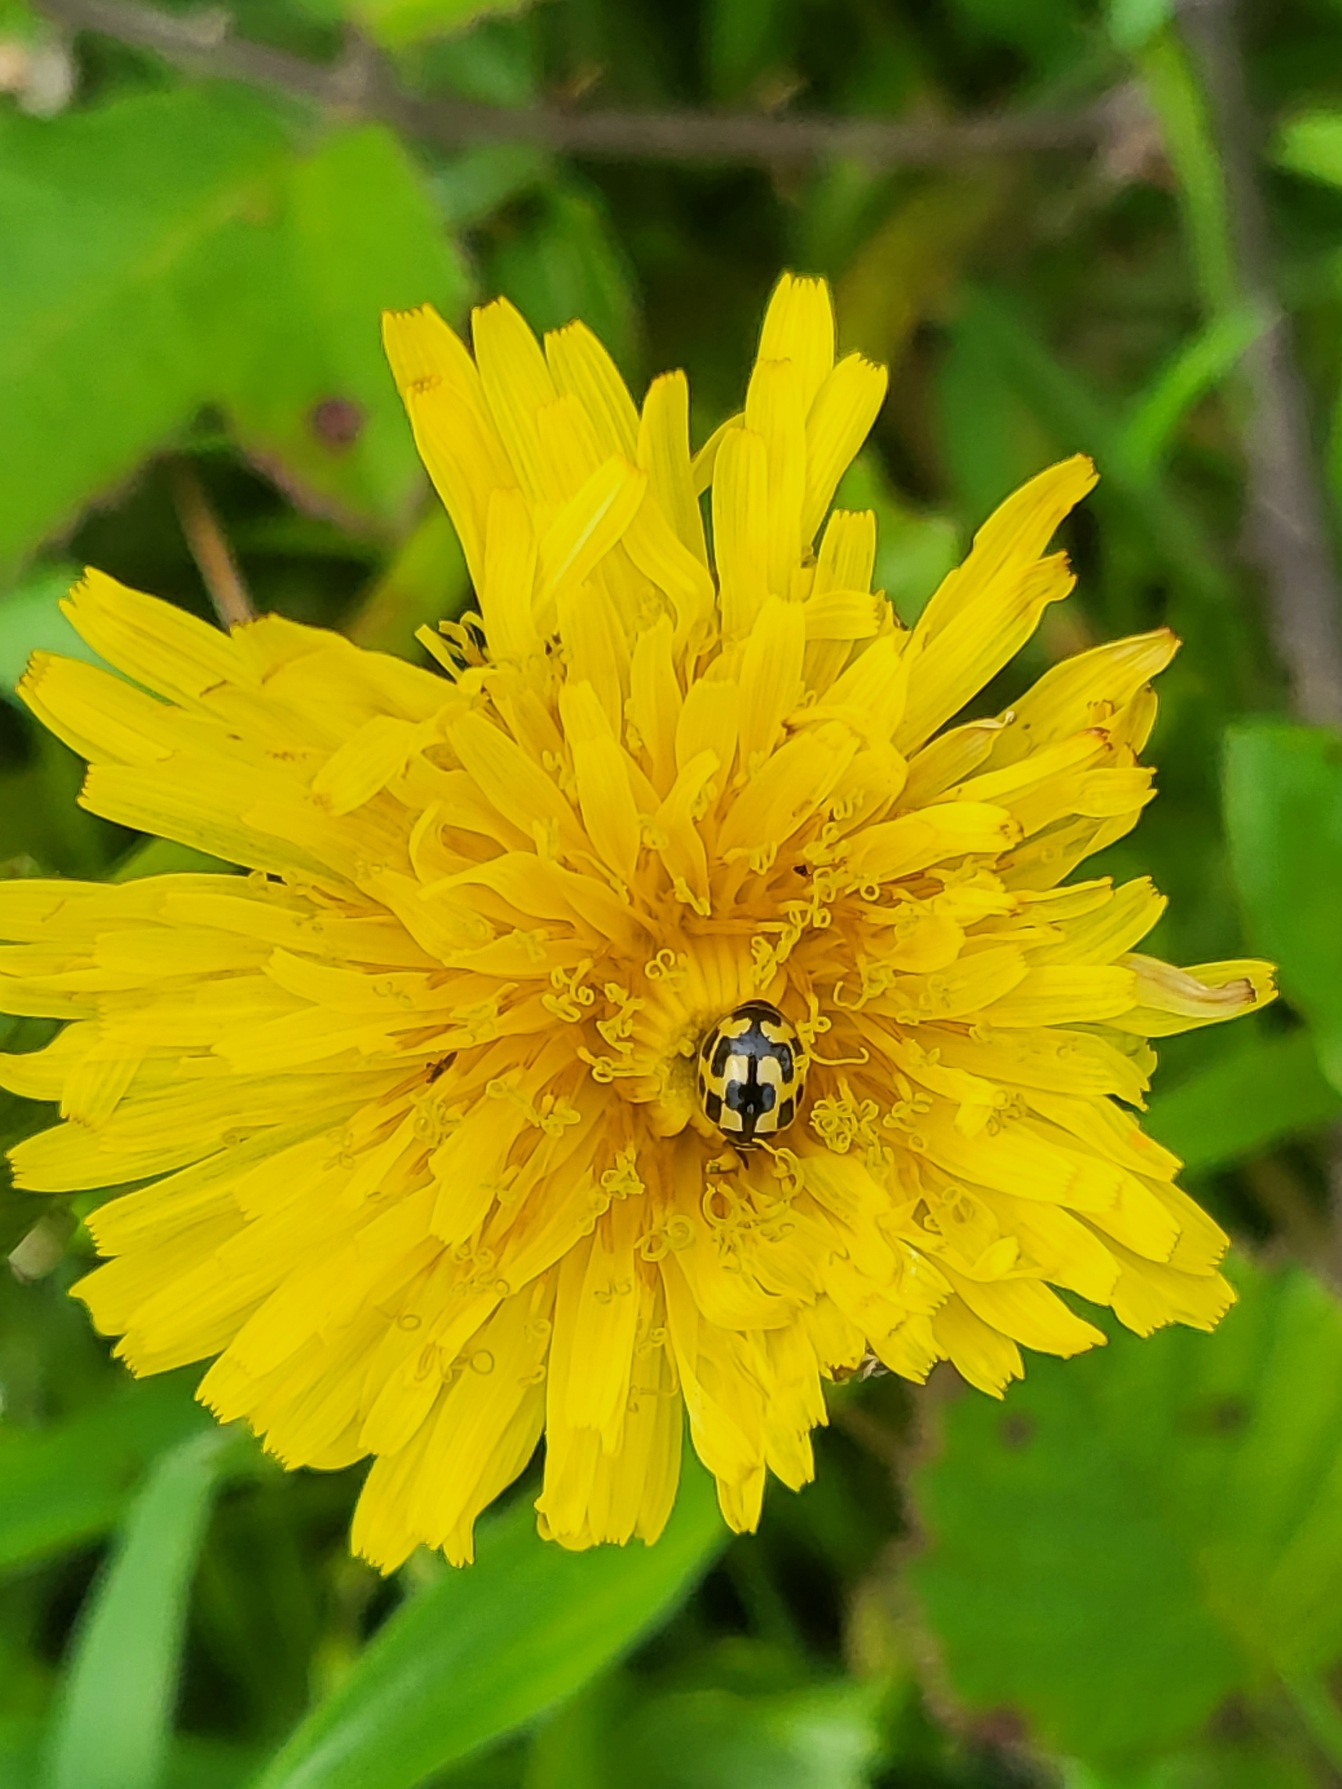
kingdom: Animalia
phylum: Arthropoda
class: Insecta
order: Coleoptera
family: Coccinellidae
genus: Propylaea
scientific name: Propylaea quatuordecimpunctata
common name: Skakbræt
